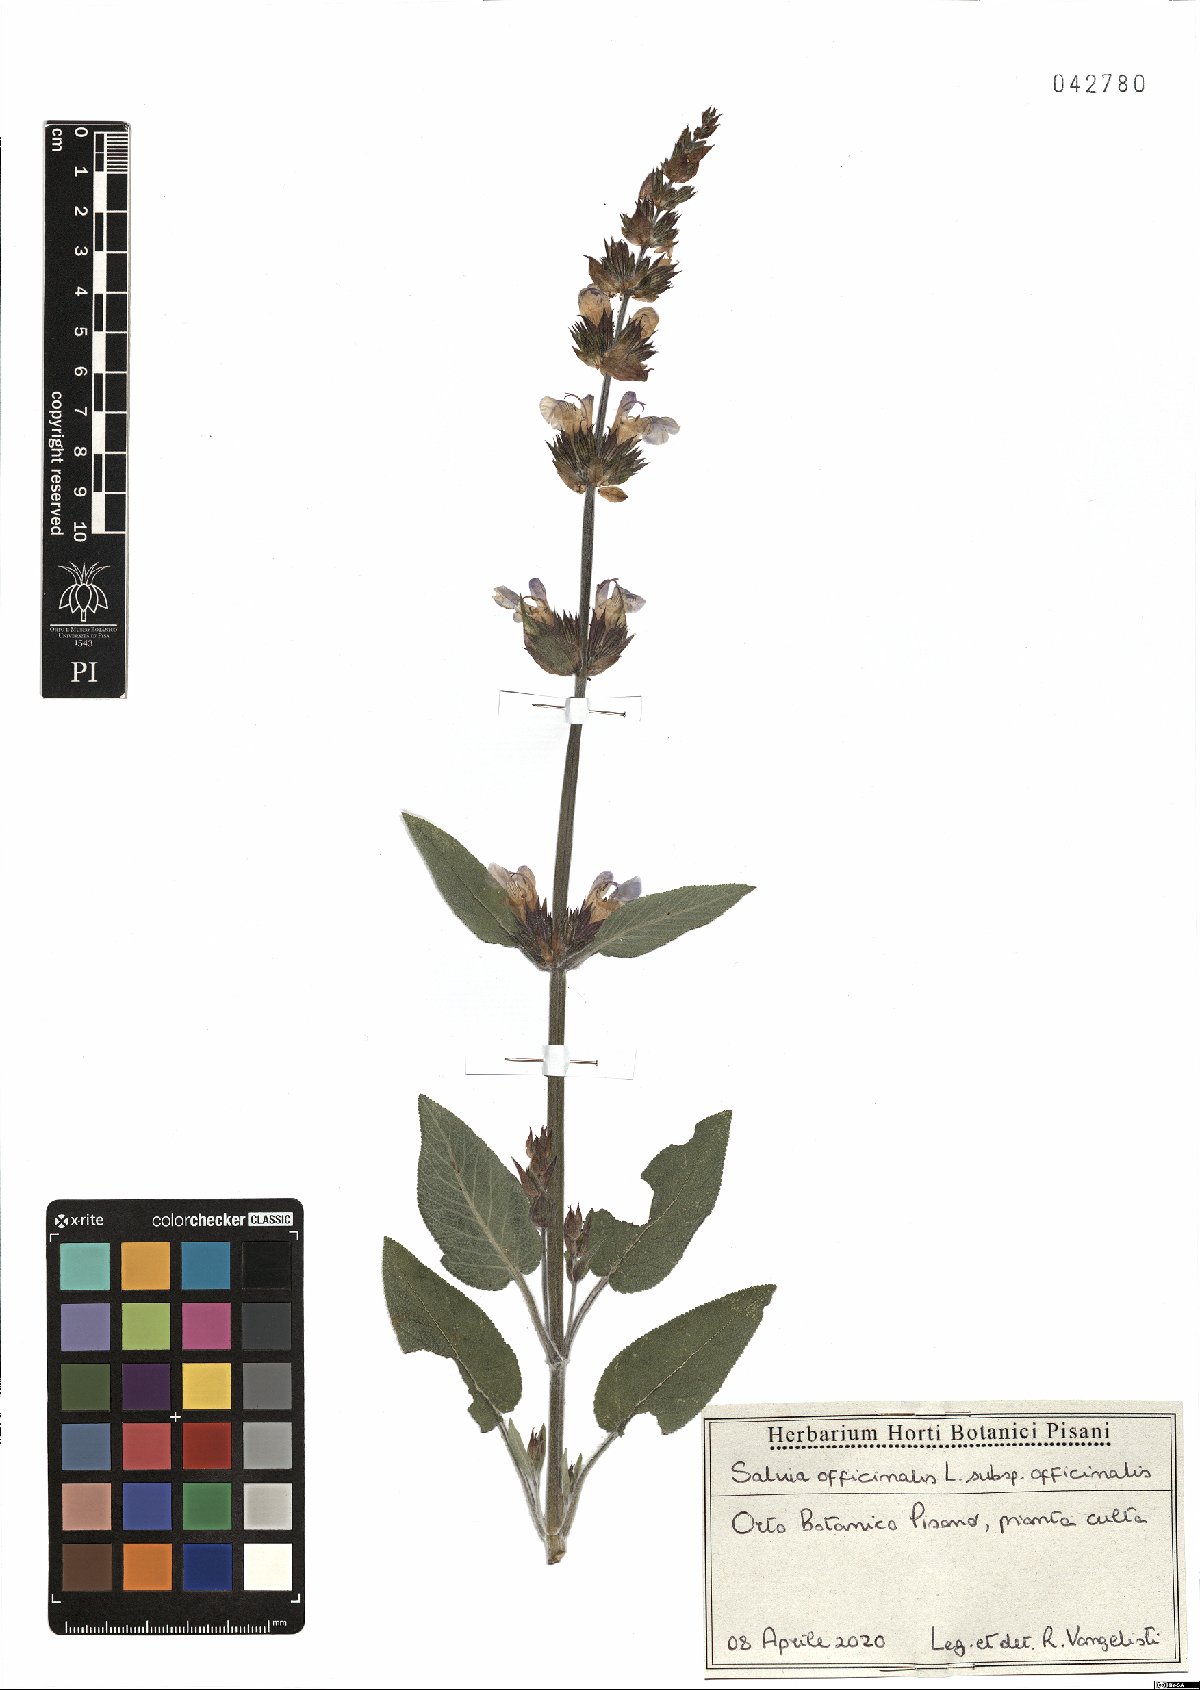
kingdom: Plantae
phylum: Tracheophyta
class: Magnoliopsida
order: Lamiales
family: Lamiaceae
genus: Salvia
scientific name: Salvia officinalis
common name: Sage
